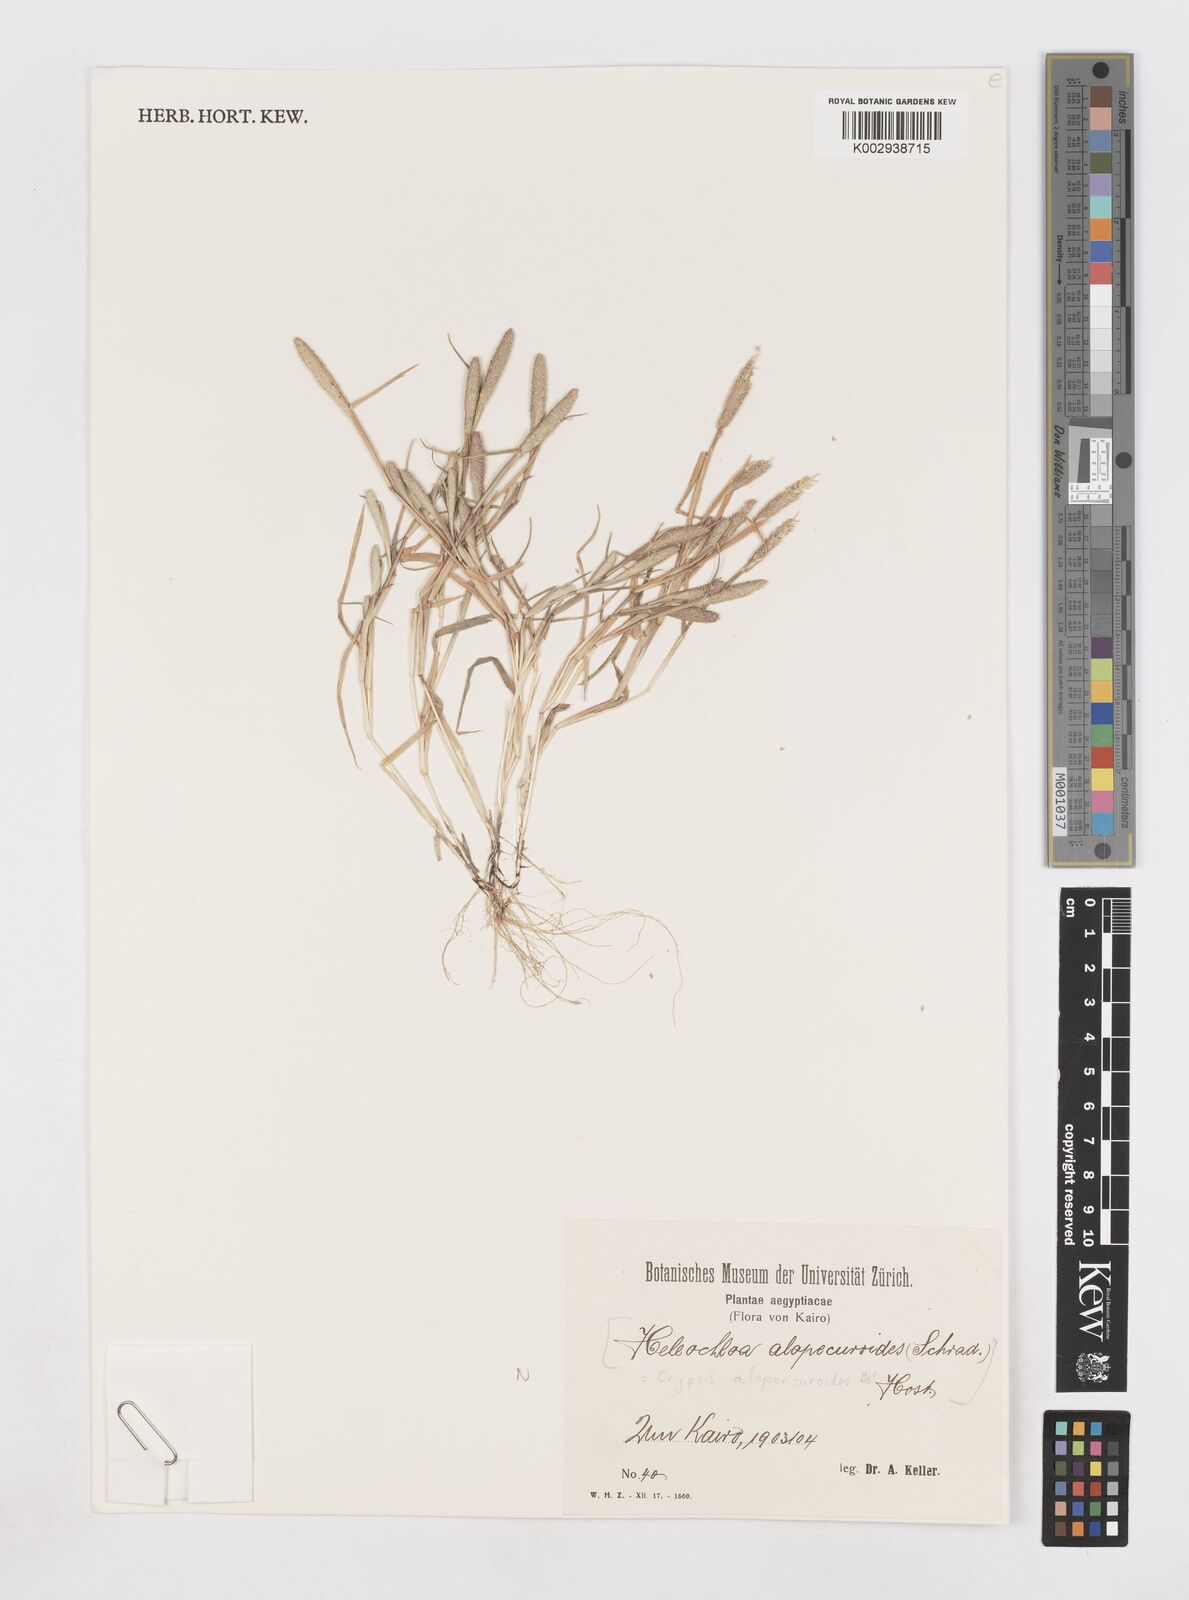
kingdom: Plantae
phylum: Tracheophyta
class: Liliopsida
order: Poales
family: Poaceae
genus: Sporobolus
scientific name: Sporobolus alopecuroides
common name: Foxtail pricklegrass
